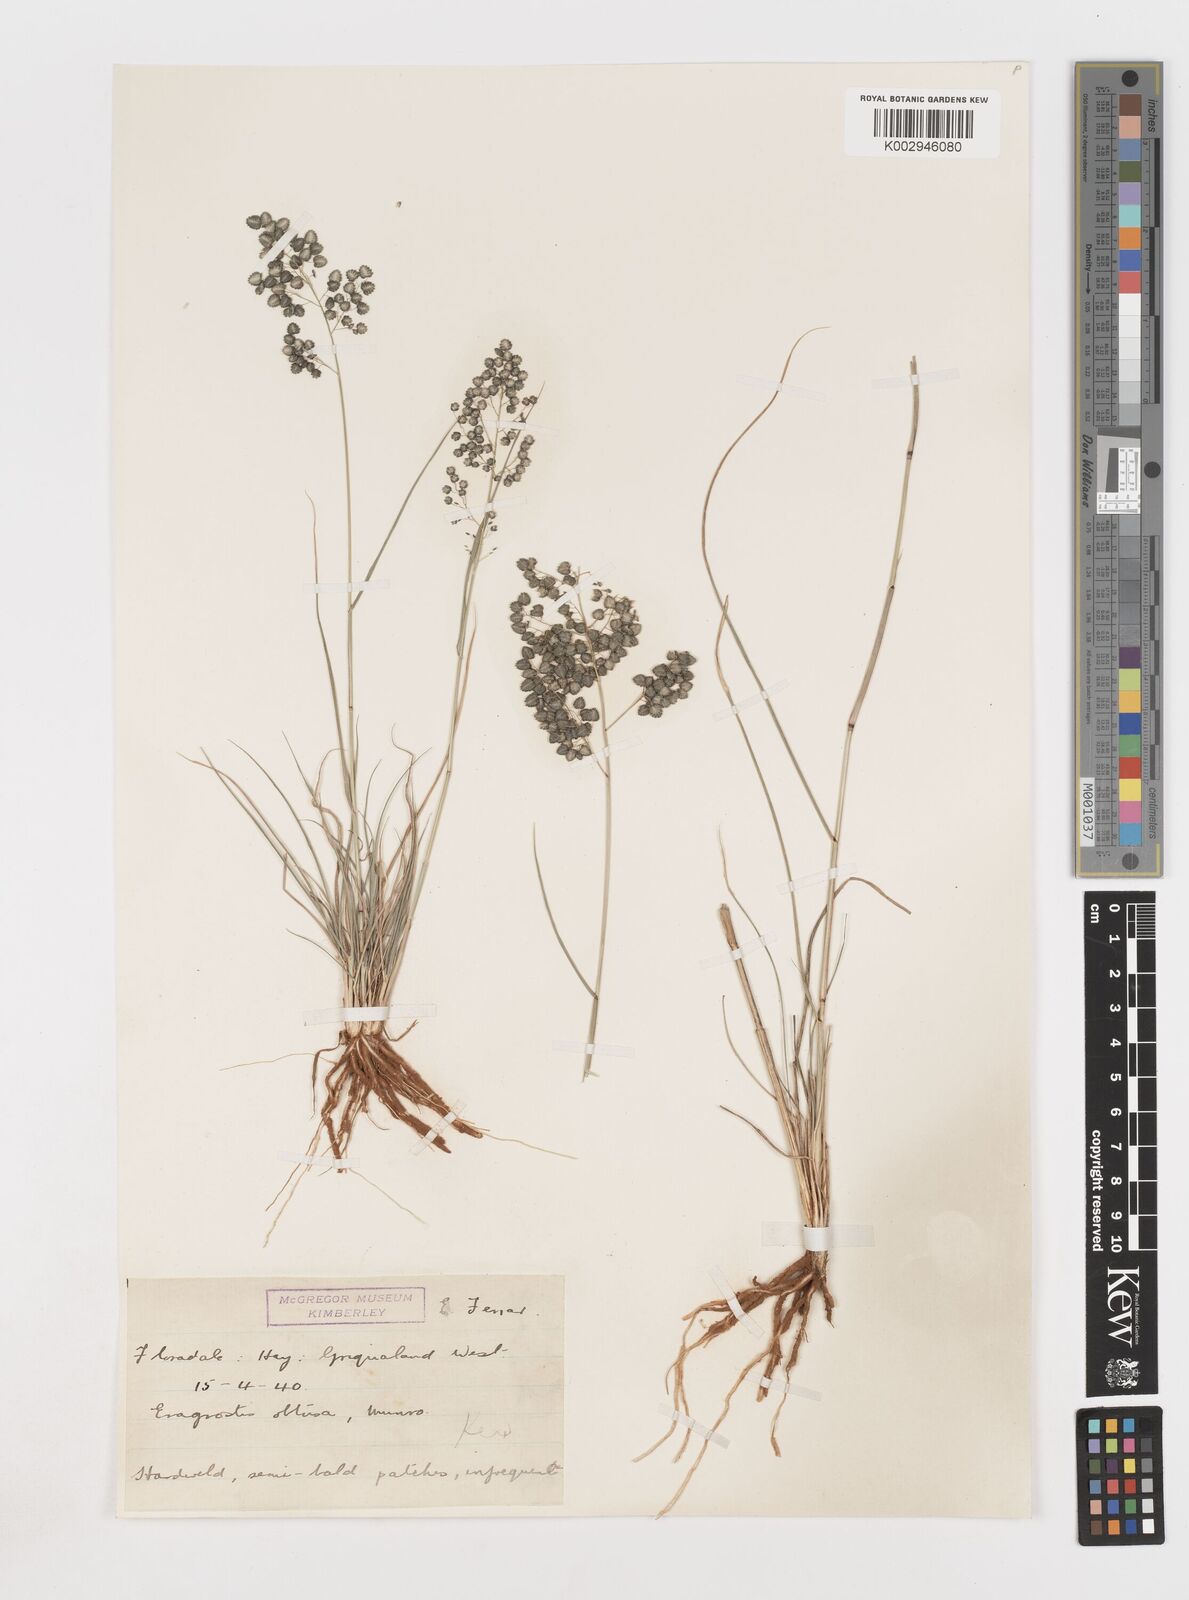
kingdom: Plantae
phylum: Tracheophyta
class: Liliopsida
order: Poales
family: Poaceae
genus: Eragrostis
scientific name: Eragrostis obtusa
